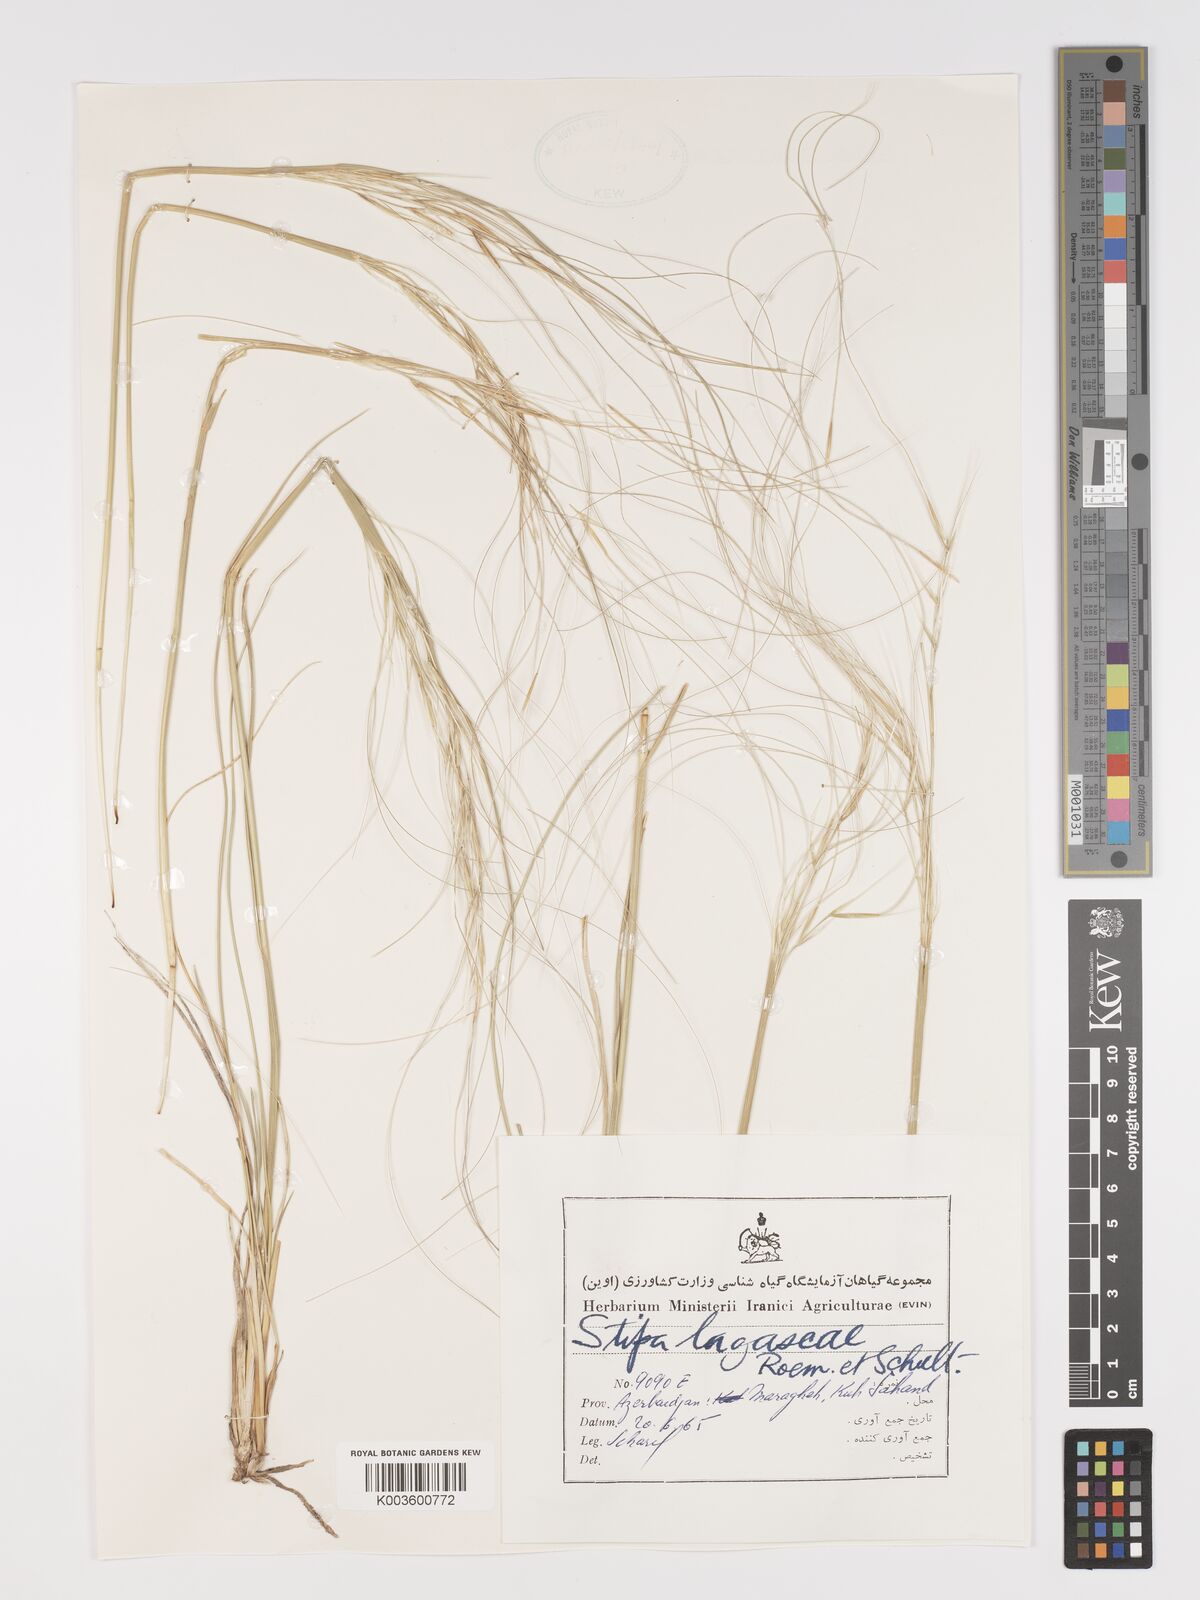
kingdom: Plantae
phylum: Tracheophyta
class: Liliopsida
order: Poales
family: Poaceae
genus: Stipa
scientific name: Stipa lagascae
